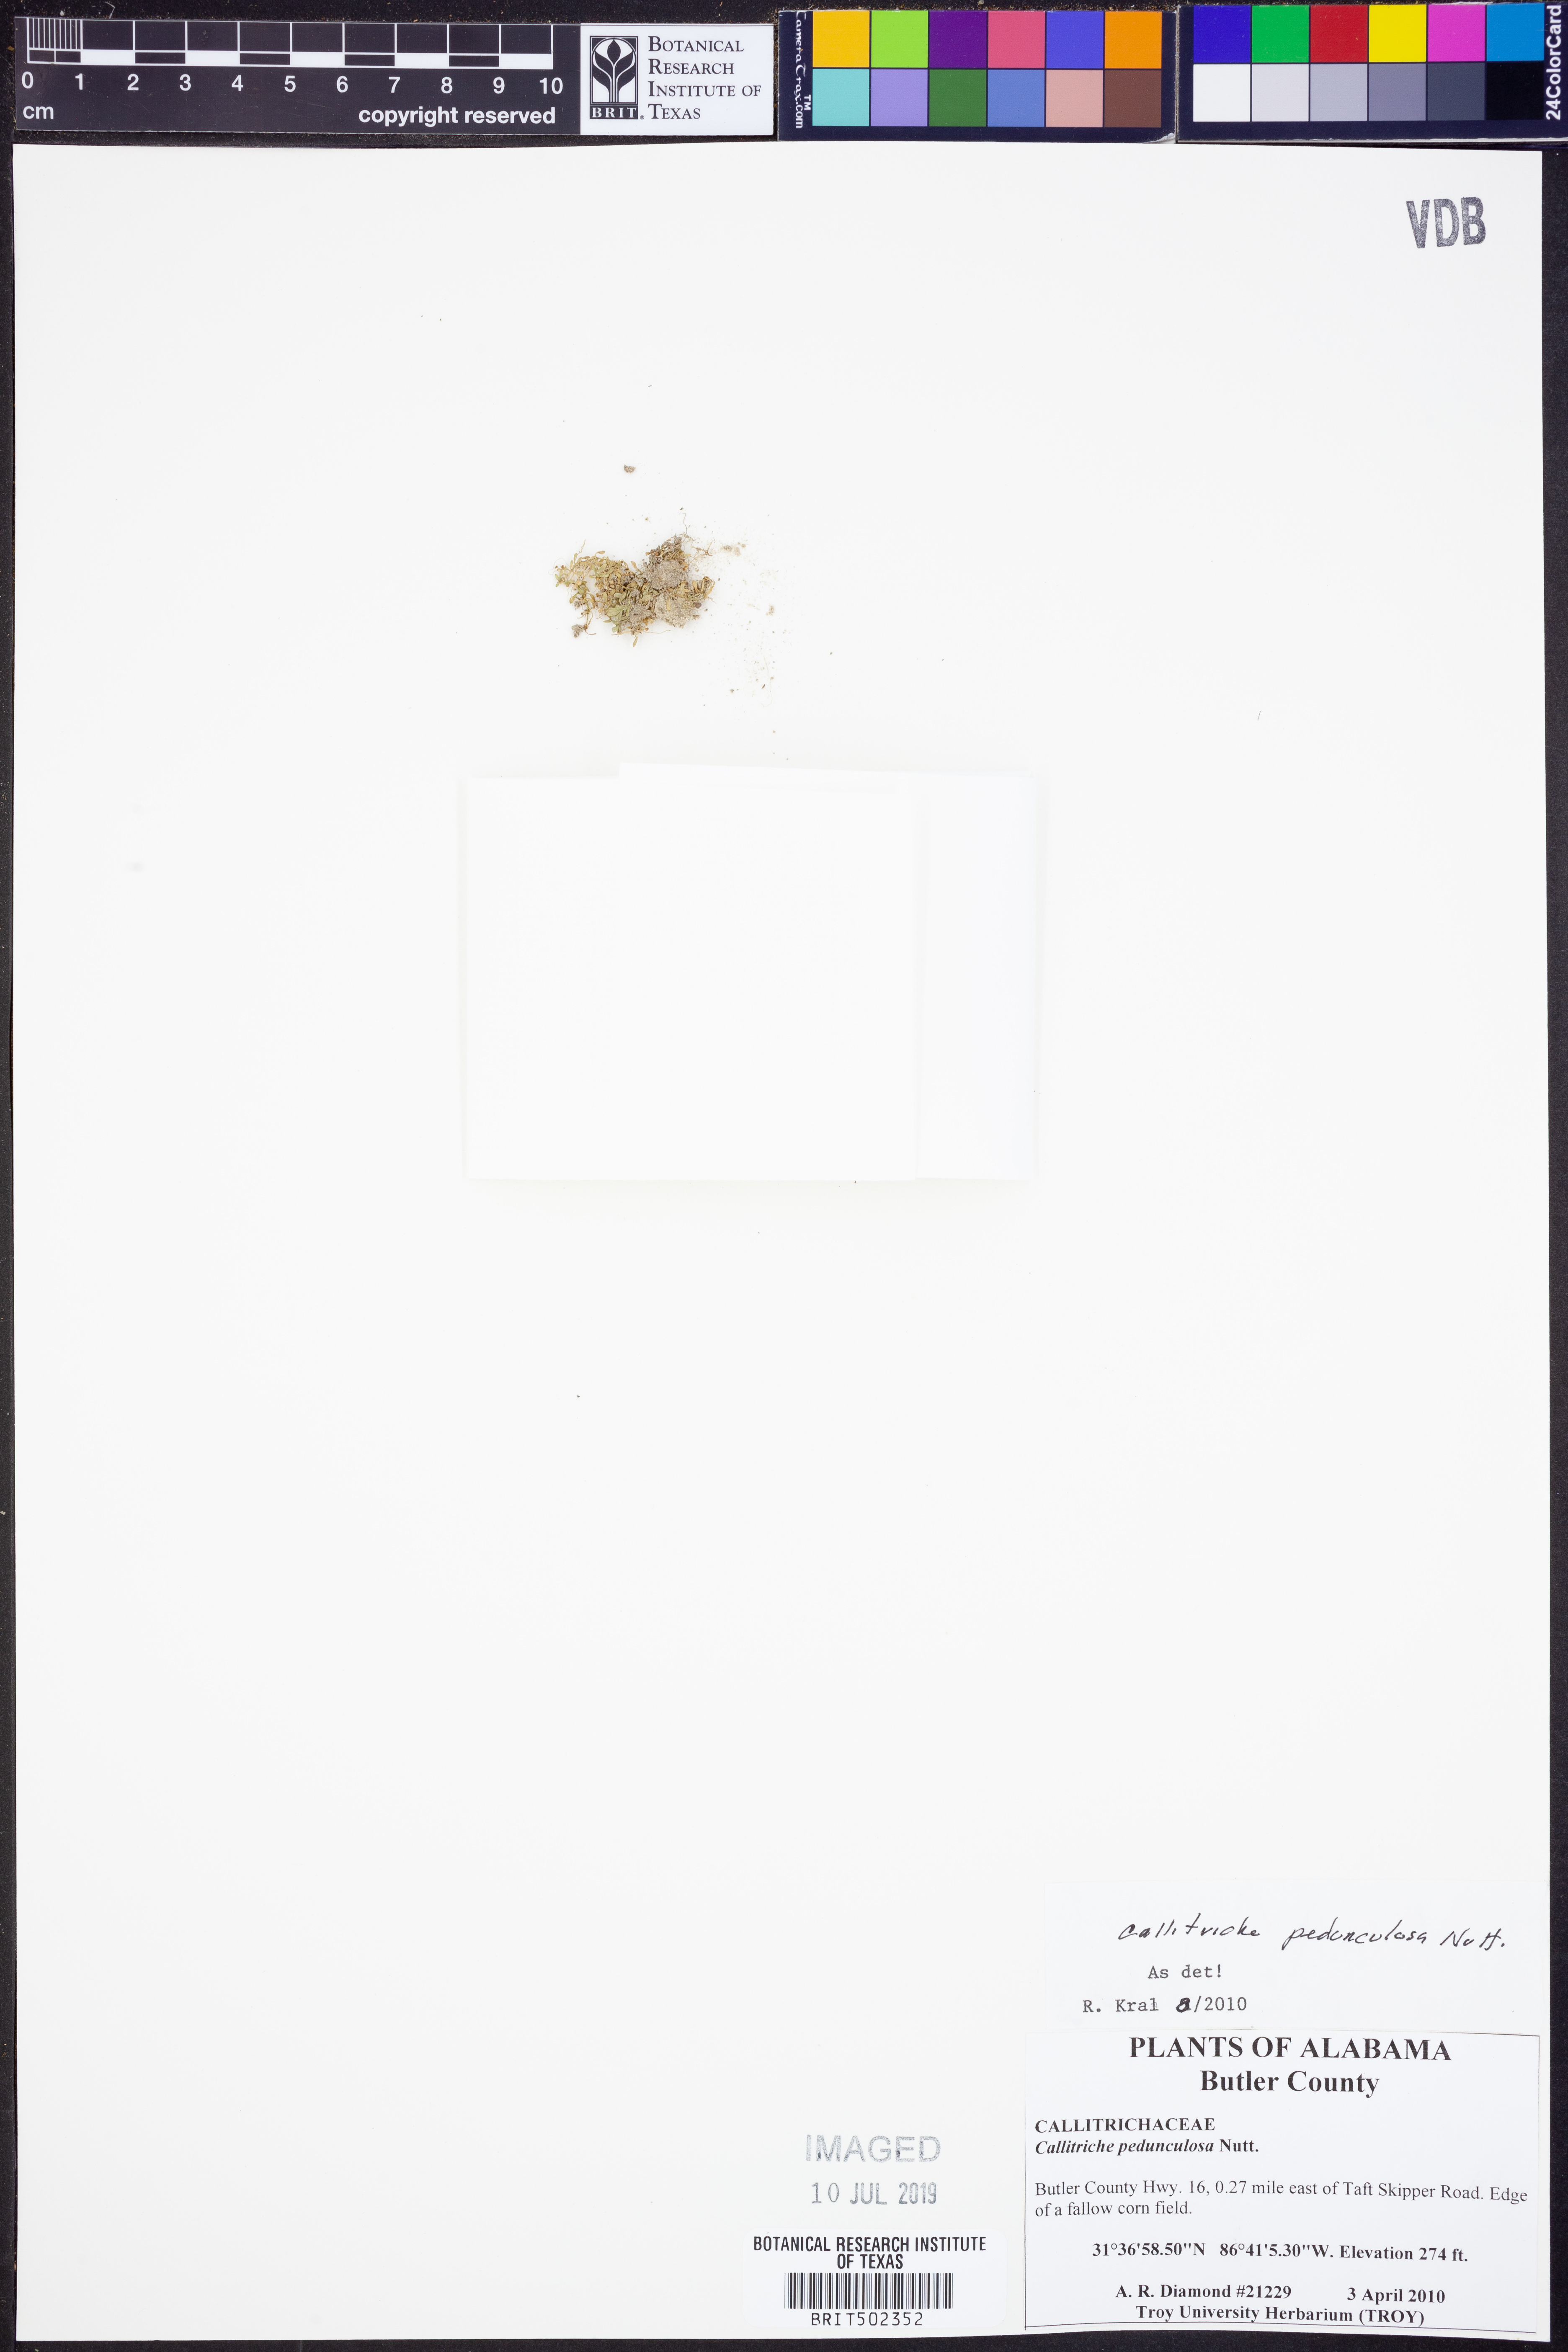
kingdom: Plantae
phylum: Tracheophyta
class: Magnoliopsida
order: Lamiales
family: Plantaginaceae
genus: Callitriche
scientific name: Callitriche pedunculosa
